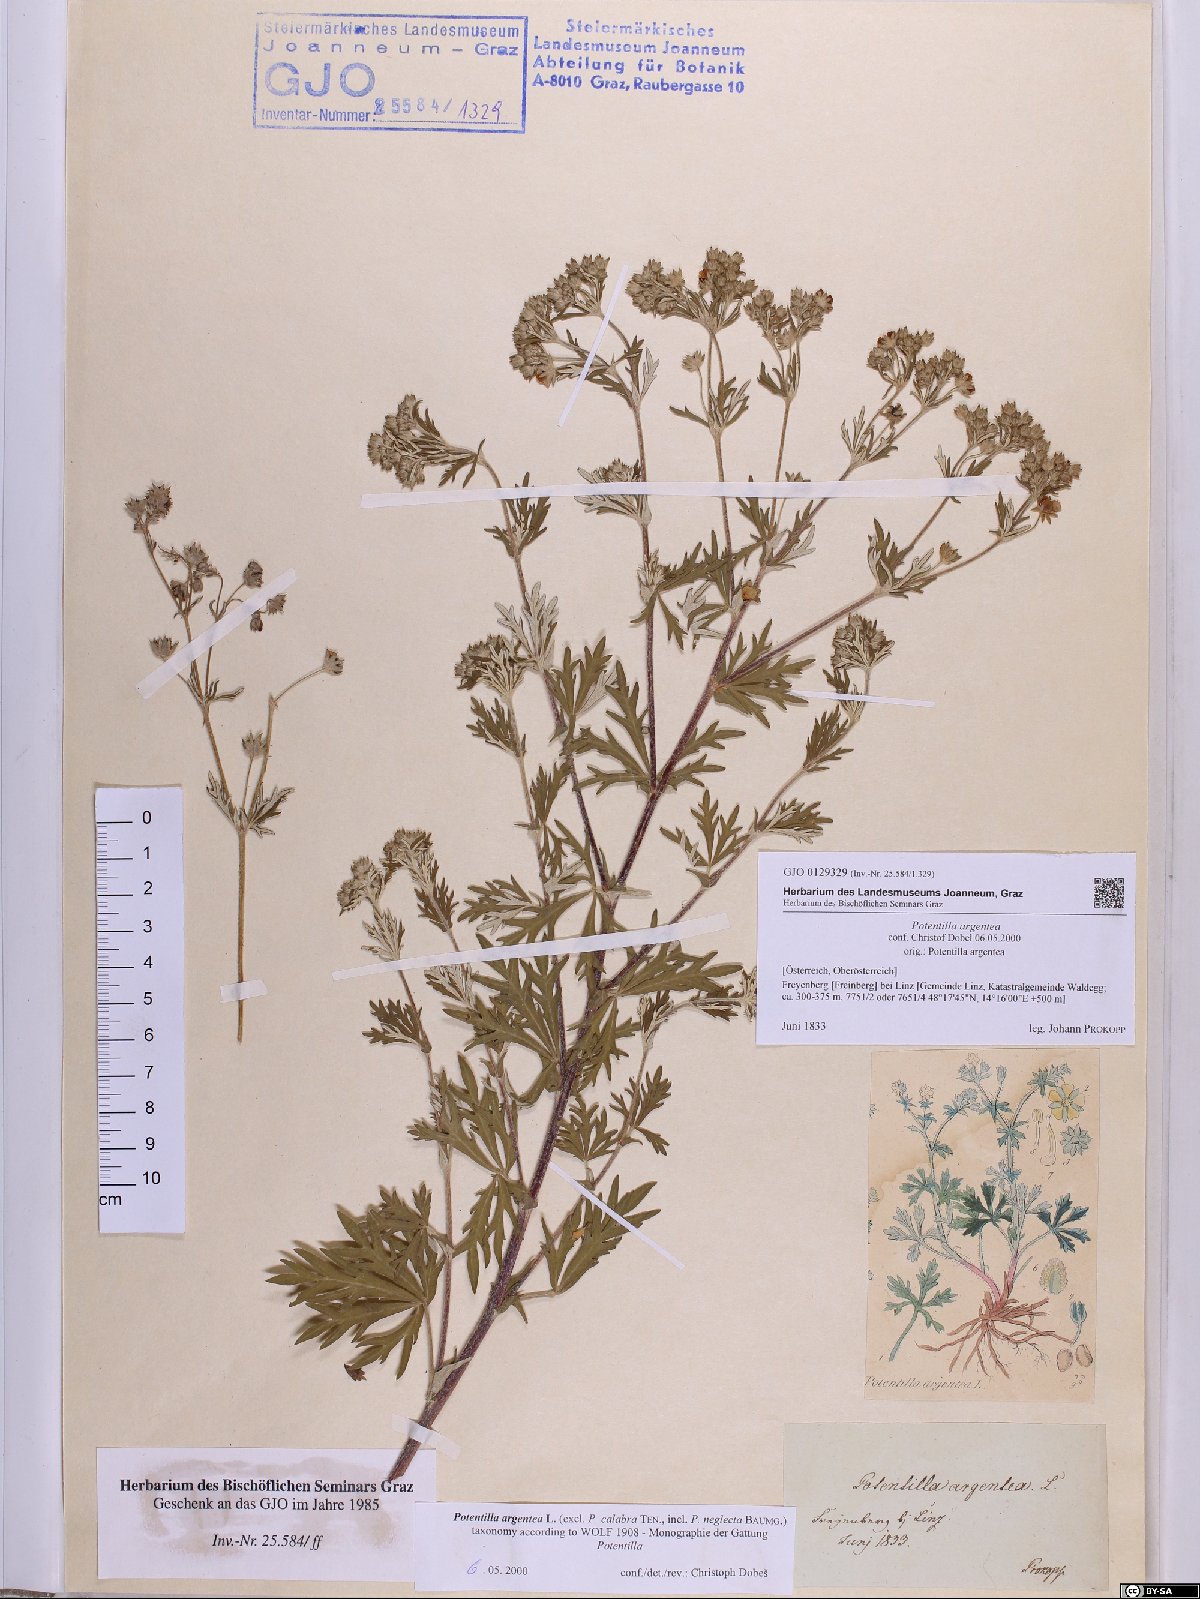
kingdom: Plantae
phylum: Tracheophyta
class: Magnoliopsida
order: Rosales
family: Rosaceae
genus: Potentilla
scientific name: Potentilla argentea
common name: Hoary cinquefoil
